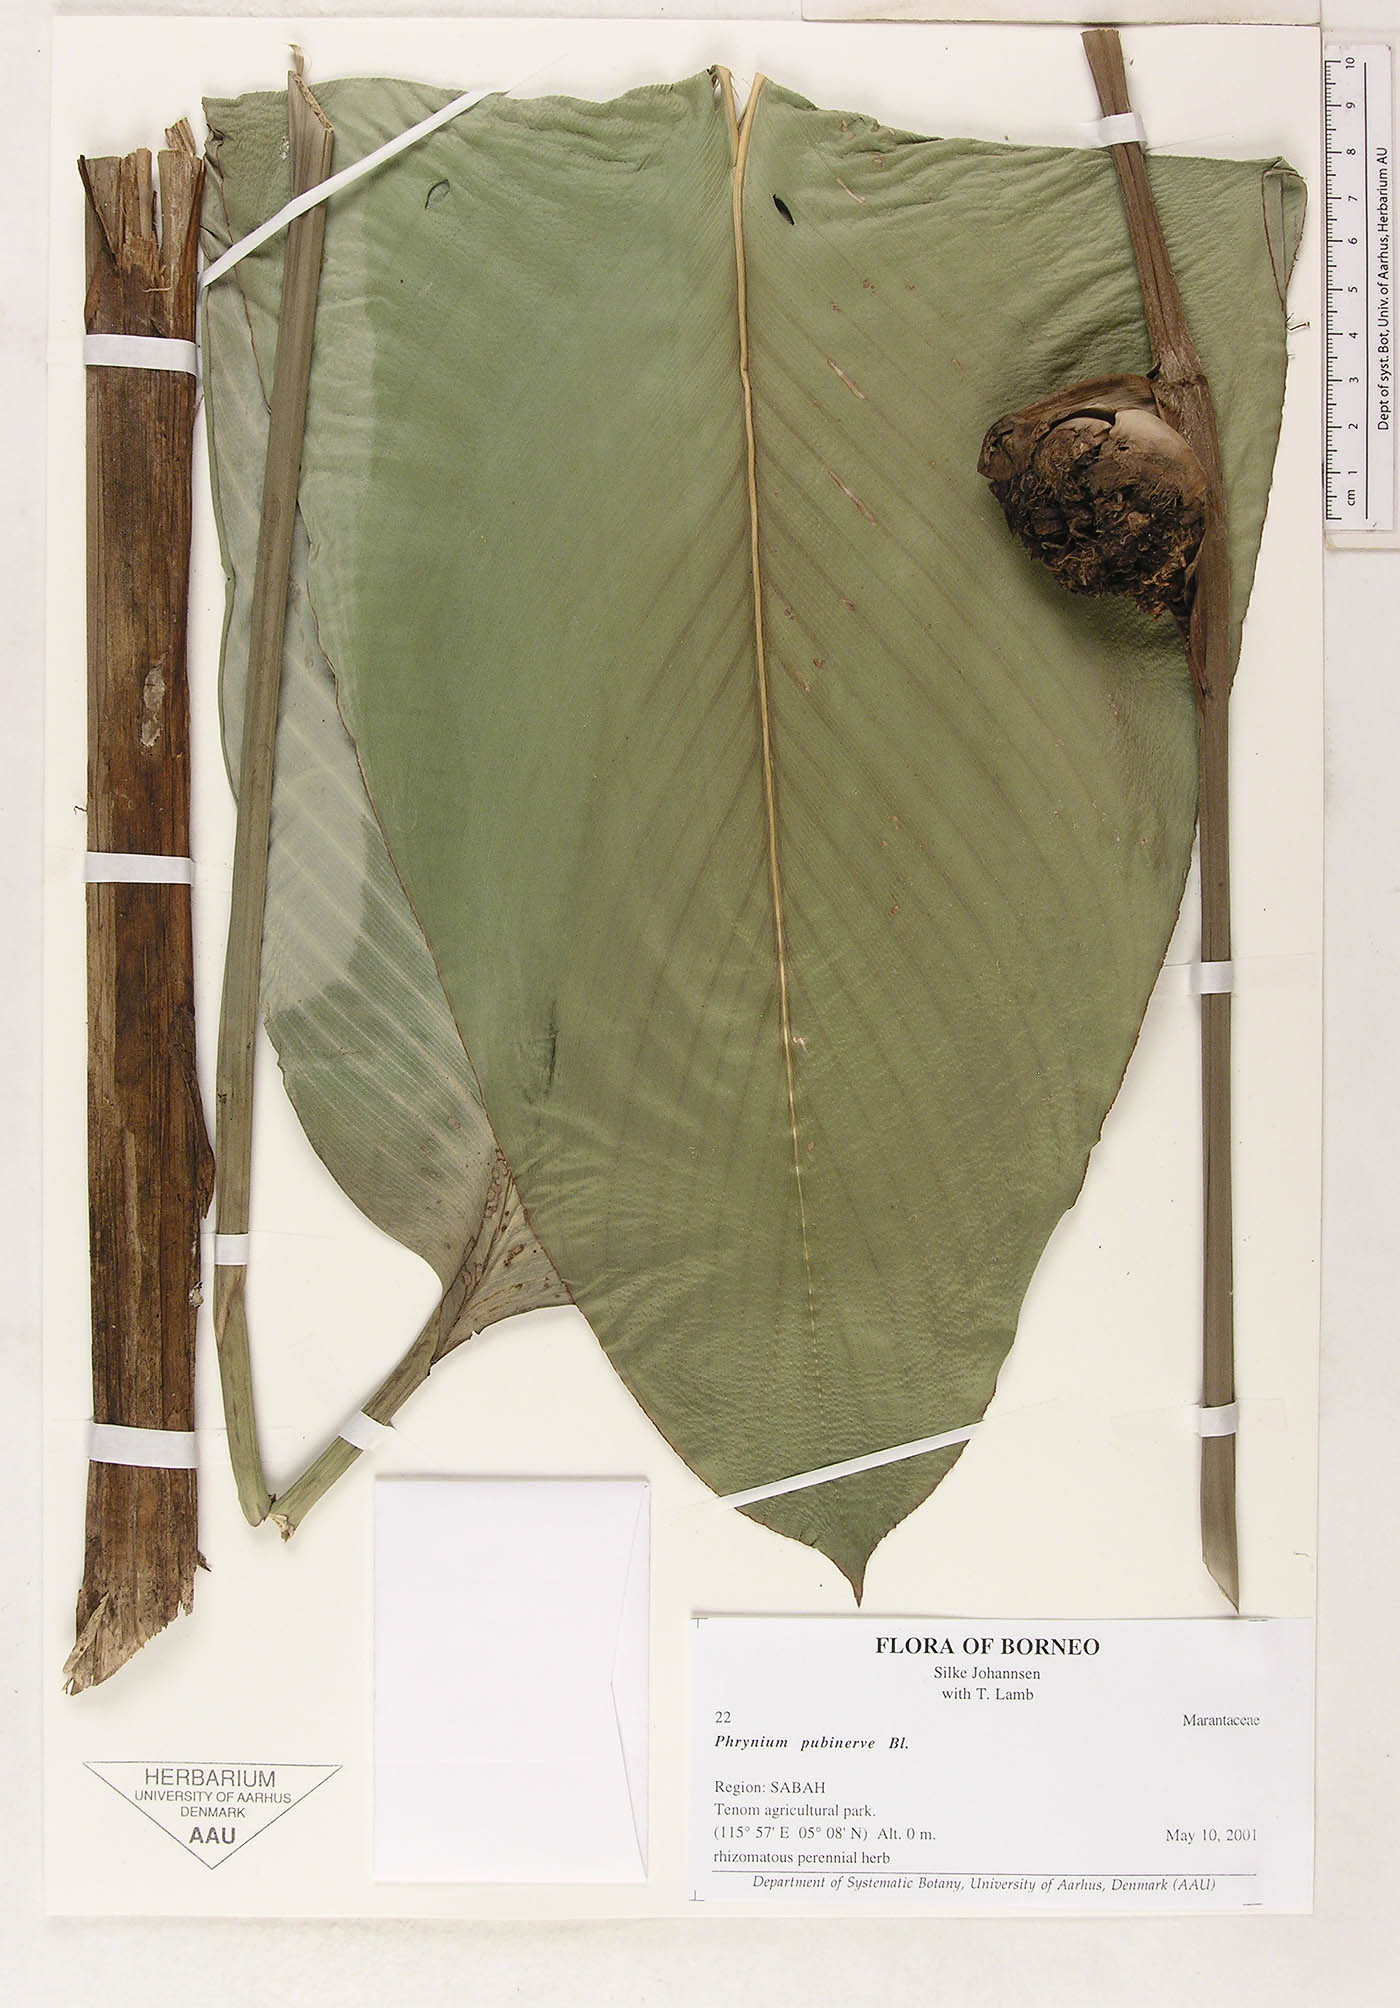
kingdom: Plantae
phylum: Tracheophyta
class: Liliopsida
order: Zingiberales
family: Marantaceae
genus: Phrynium
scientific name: Phrynium pubinerve
